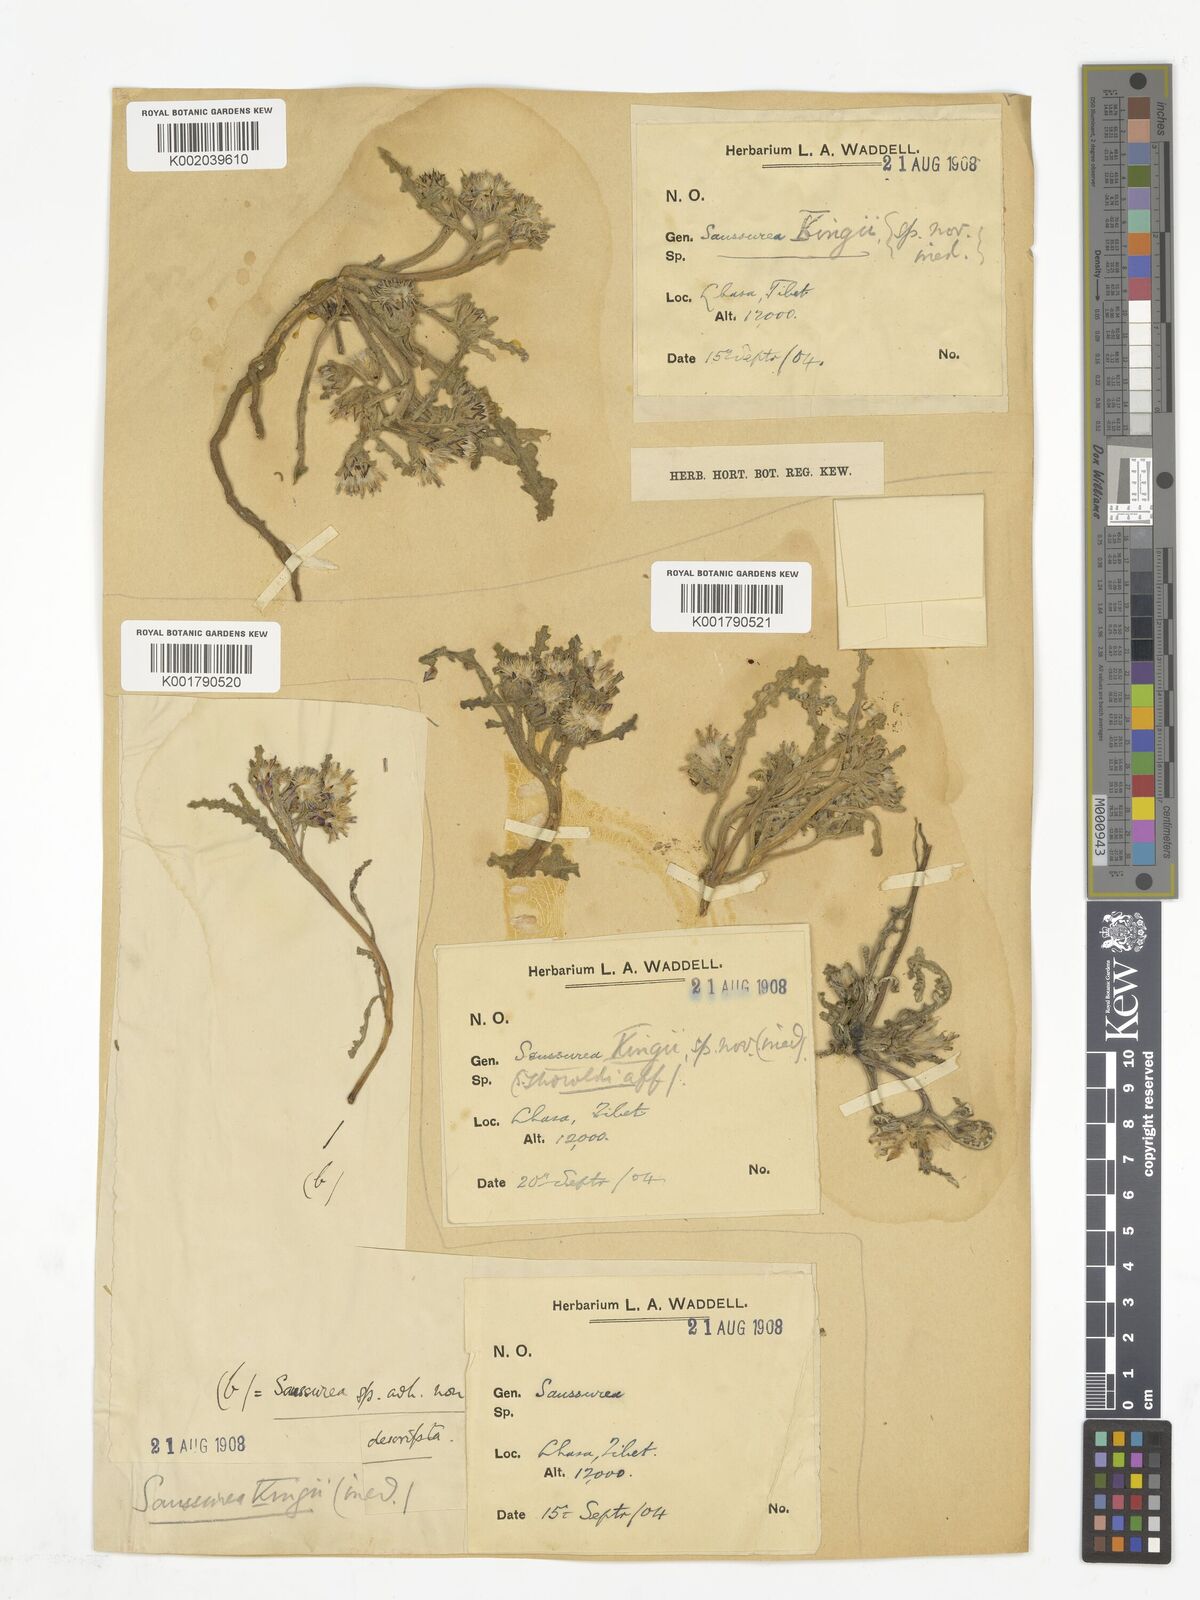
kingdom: Plantae
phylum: Tracheophyta
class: Magnoliopsida
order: Asterales
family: Asteraceae
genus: Saussurea
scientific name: Saussurea kingii
